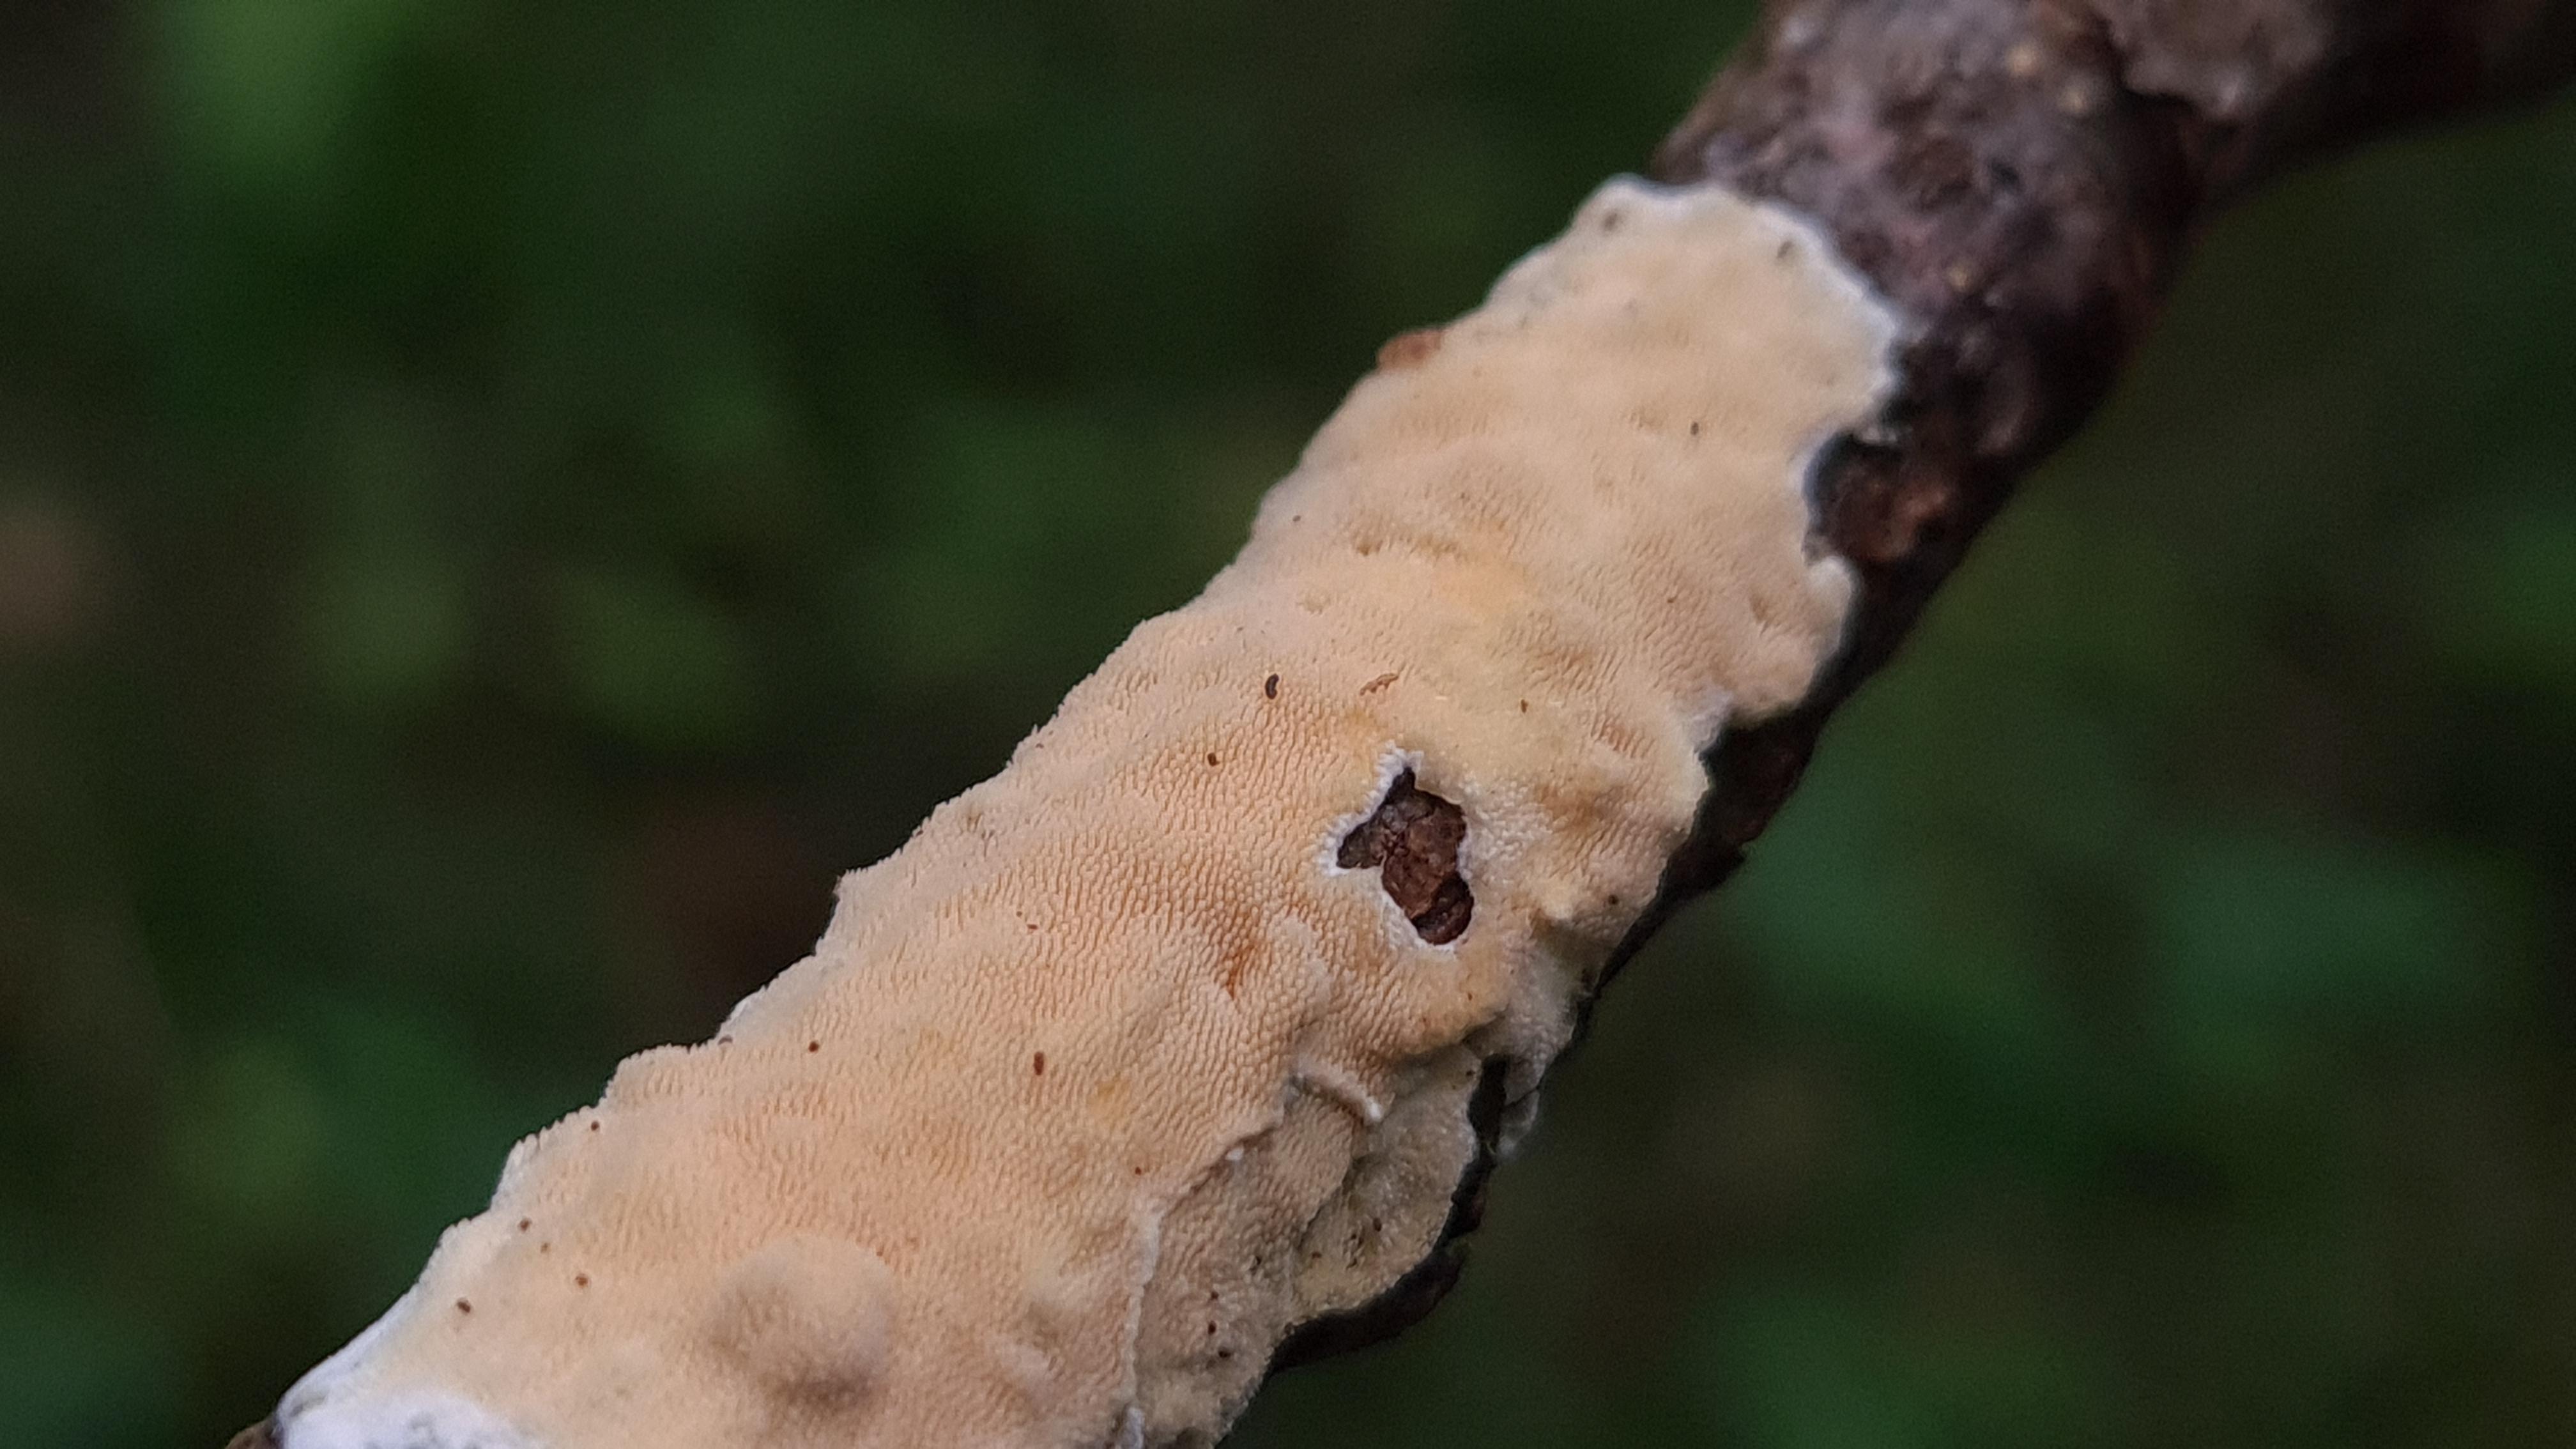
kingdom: Fungi
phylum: Basidiomycota
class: Agaricomycetes
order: Polyporales
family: Steccherinaceae
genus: Steccherinum
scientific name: Steccherinum ochraceum
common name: almindelig skønpig
